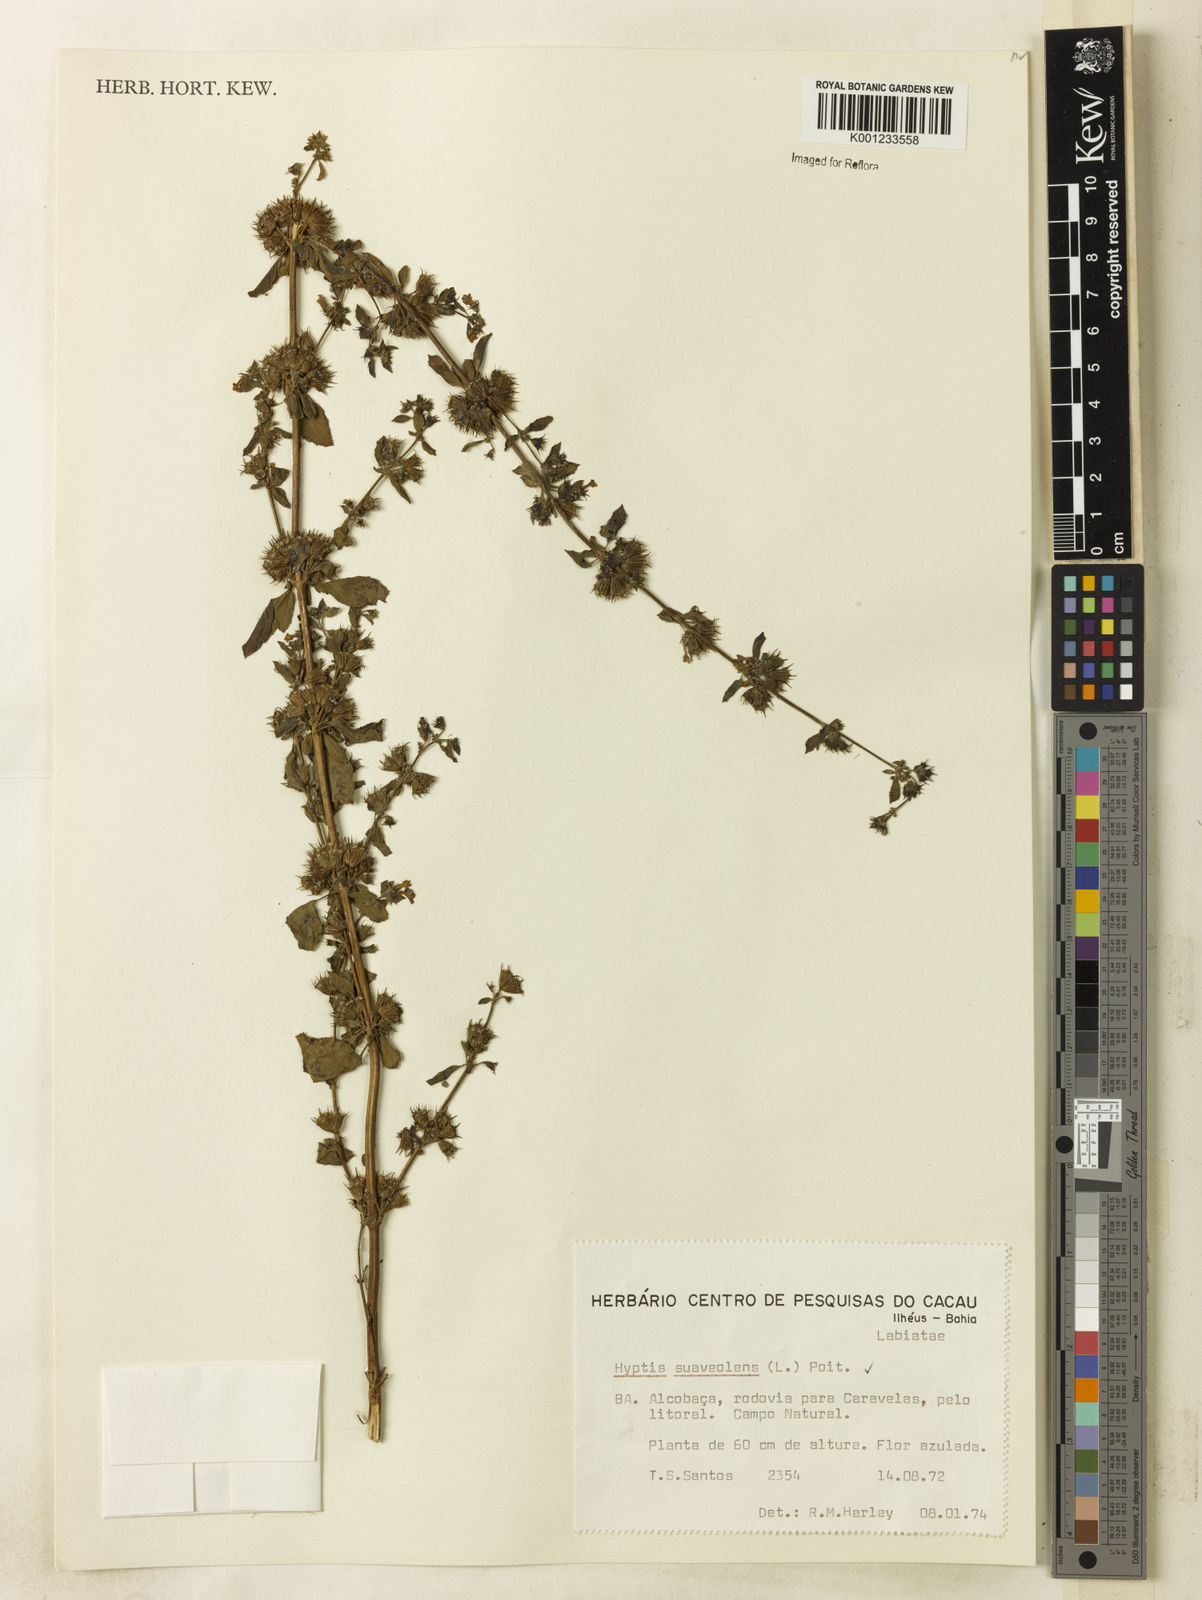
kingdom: Plantae
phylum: Tracheophyta
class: Magnoliopsida
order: Lamiales
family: Lamiaceae
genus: Mesosphaerum
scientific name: Mesosphaerum suaveolens
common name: Pignut
